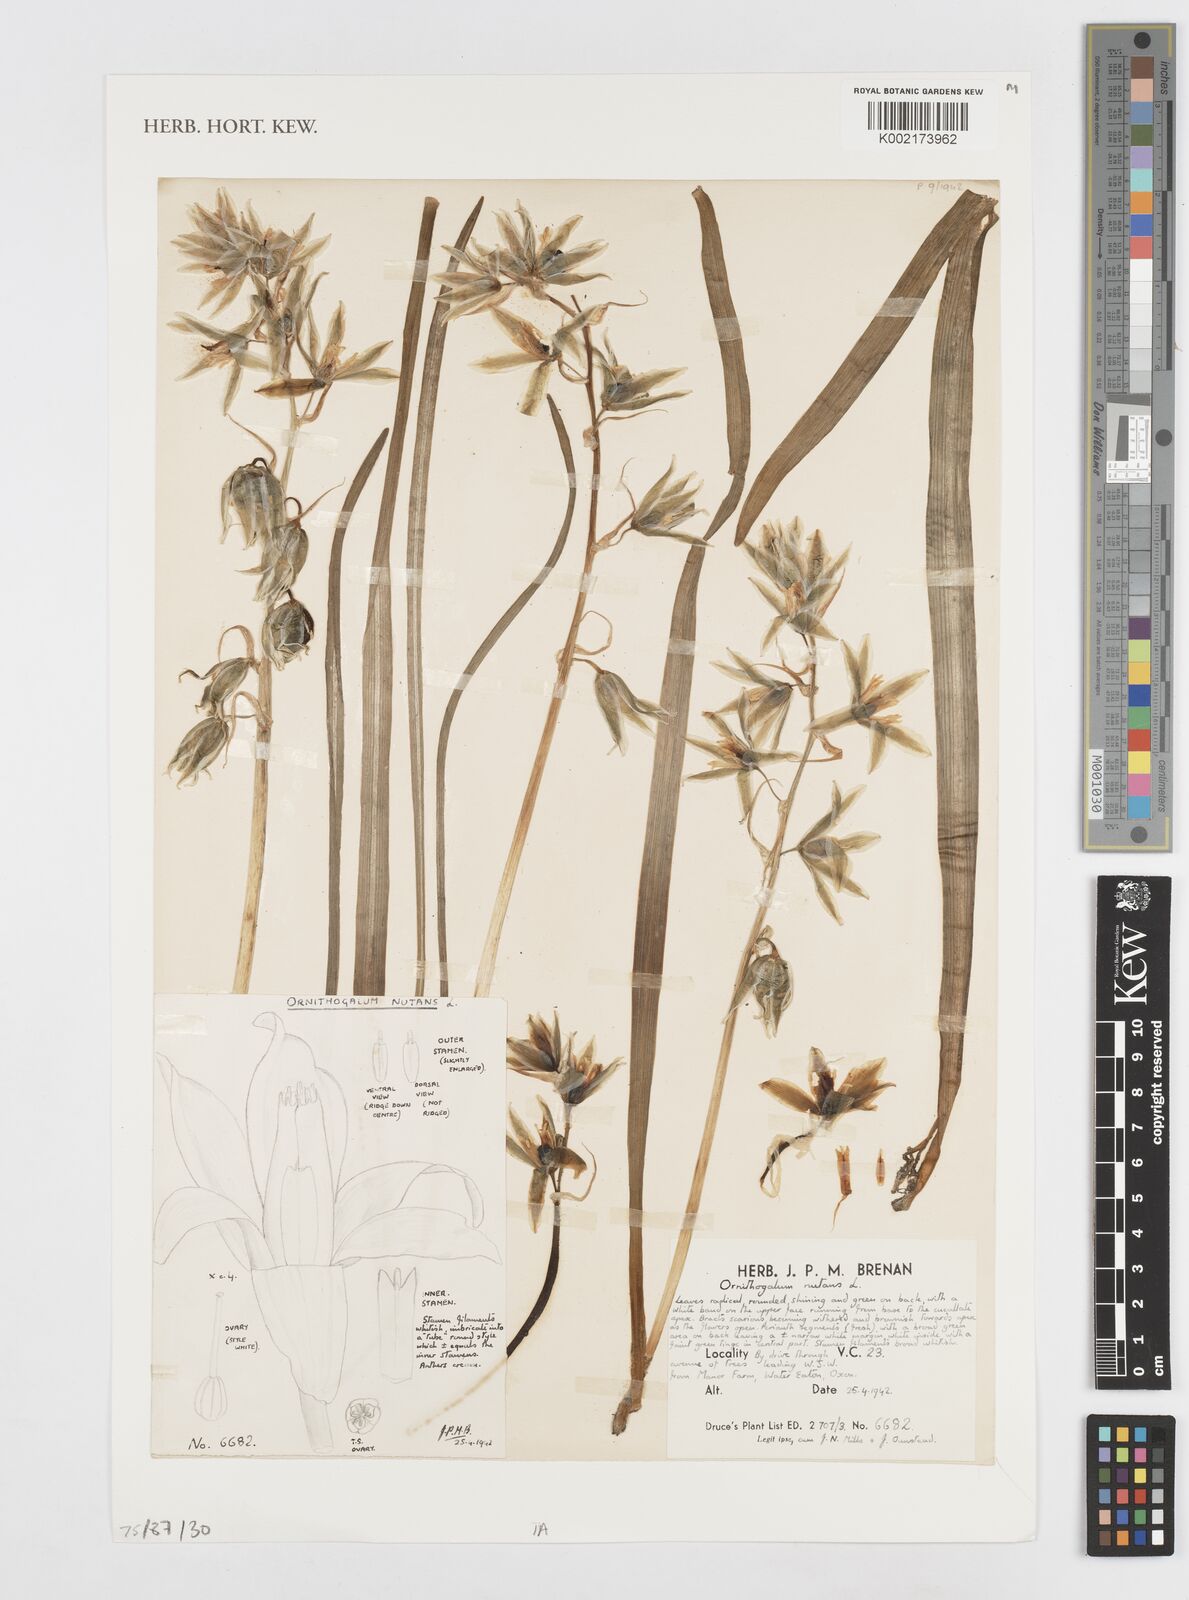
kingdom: Plantae
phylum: Tracheophyta
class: Liliopsida
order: Asparagales
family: Asparagaceae
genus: Ornithogalum
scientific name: Ornithogalum nutans
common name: Drooping star-of-bethlehem
